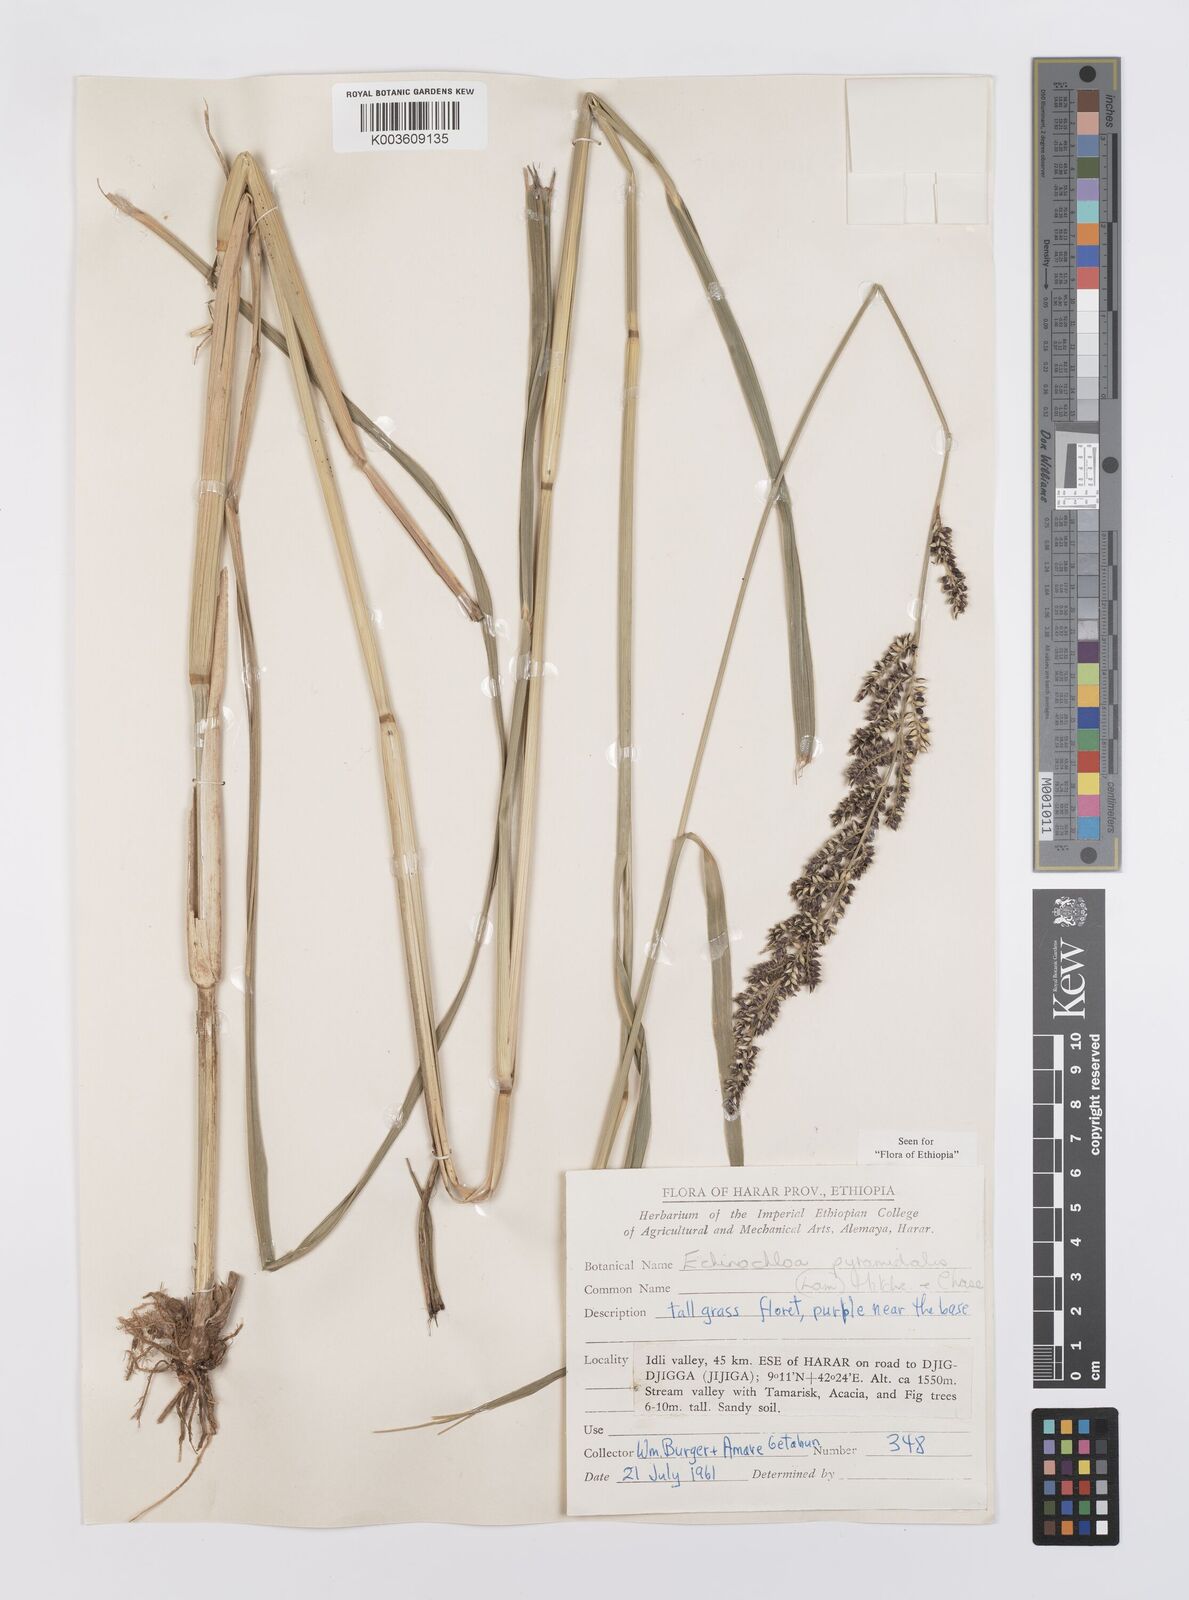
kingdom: Plantae
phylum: Tracheophyta
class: Liliopsida
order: Poales
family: Poaceae
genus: Echinochloa
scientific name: Echinochloa pyramidalis
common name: Antelope grass
